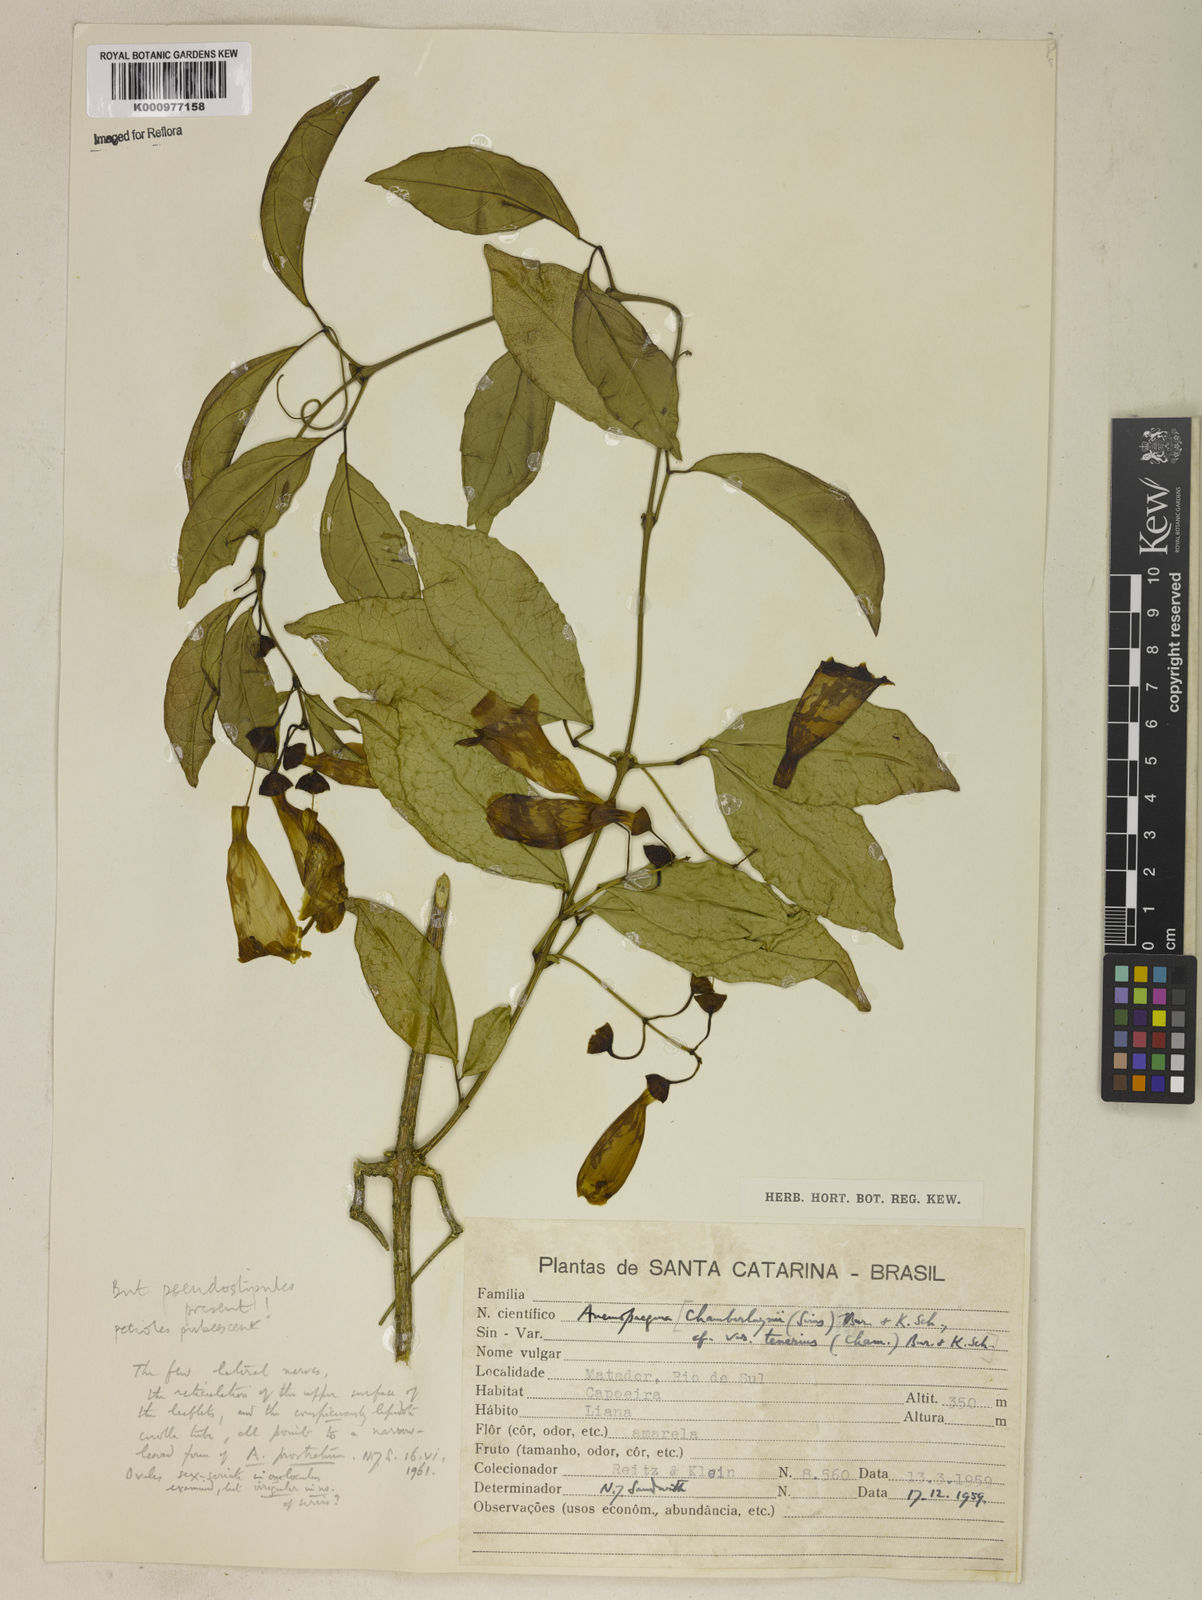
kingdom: Plantae
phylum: Tracheophyta
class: Magnoliopsida
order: Lamiales
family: Bignoniaceae
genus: Anemopaegma
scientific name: Anemopaegma chamberlaynii
